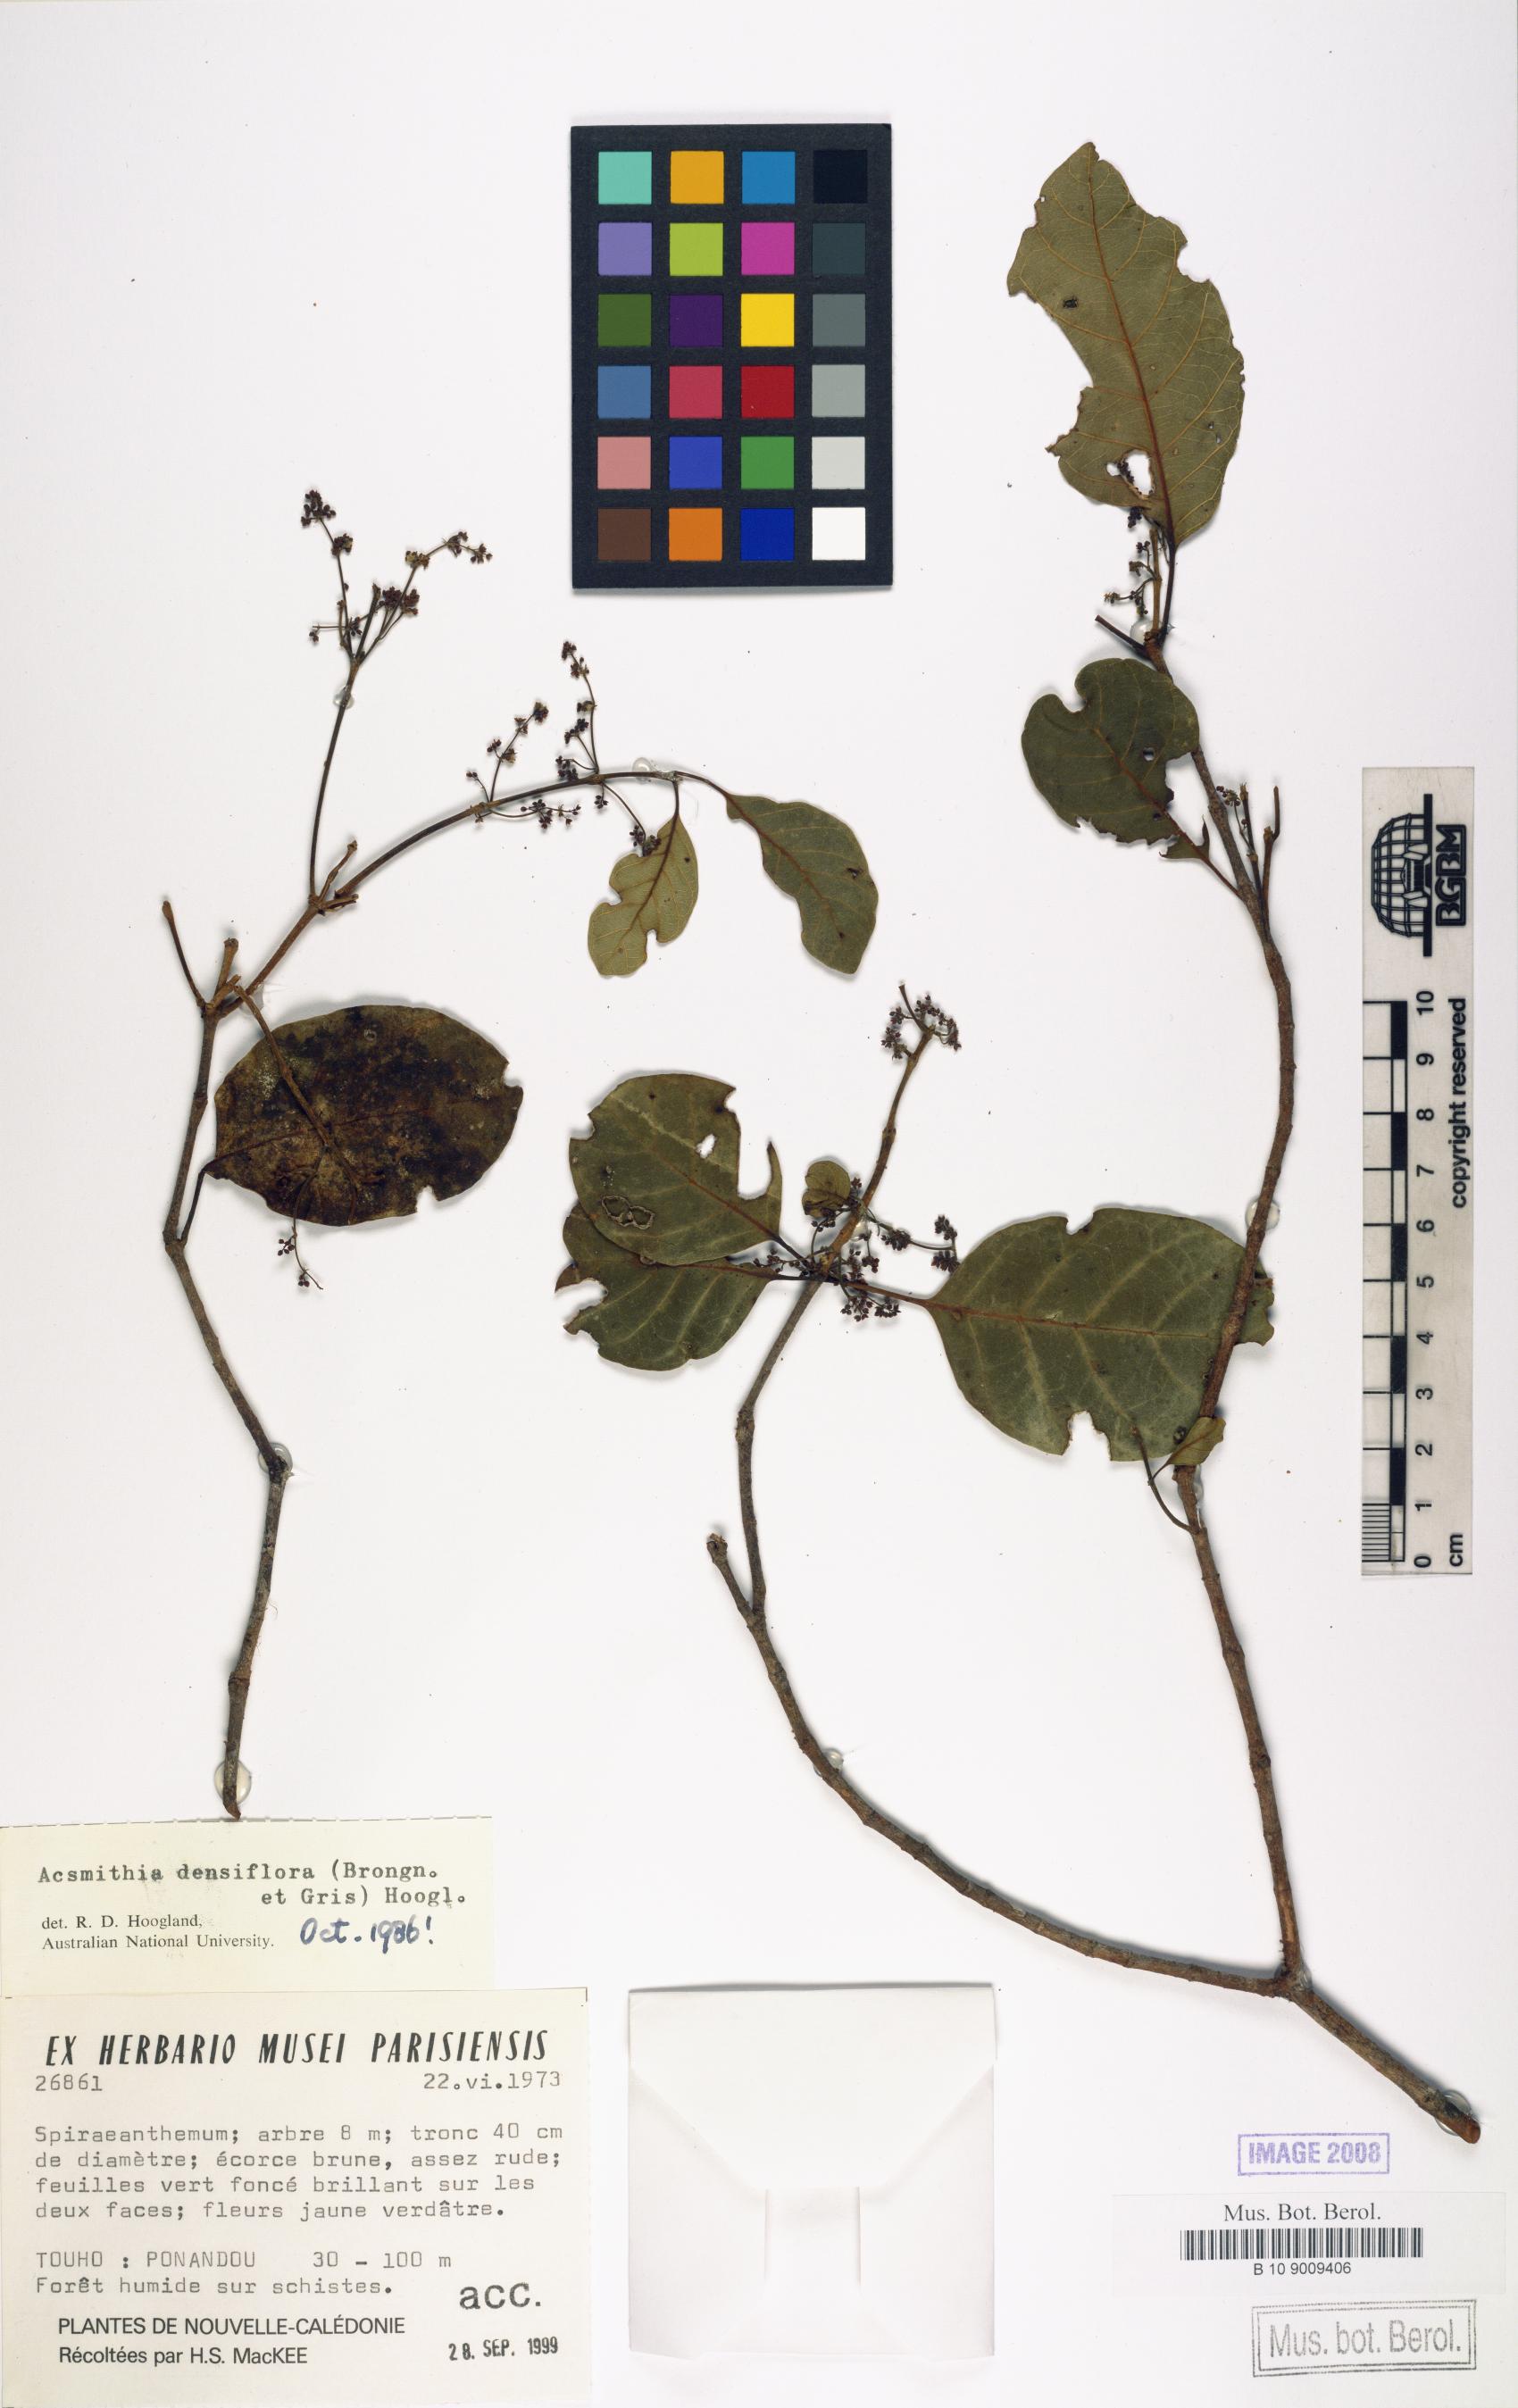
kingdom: Plantae
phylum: Tracheophyta
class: Magnoliopsida
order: Oxalidales
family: Cunoniaceae
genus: Spiraeanthemum
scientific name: Spiraeanthemum densiflorum
